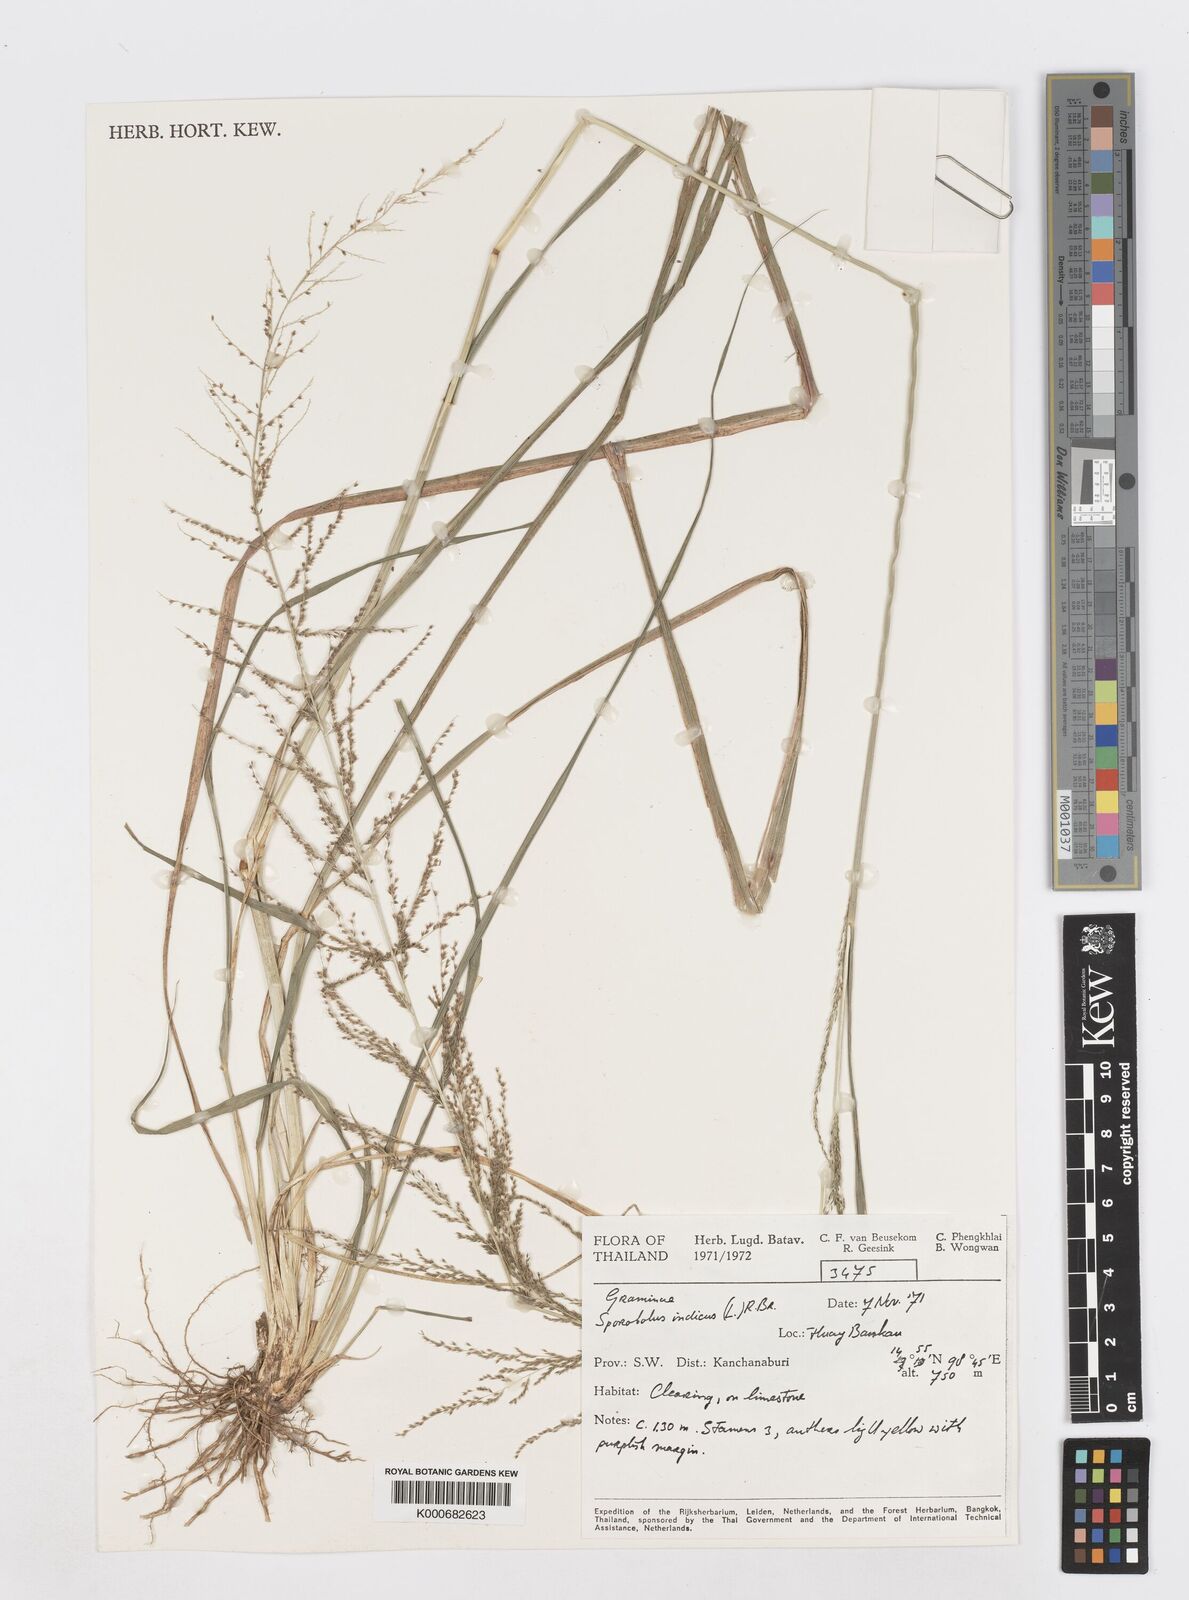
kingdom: Plantae
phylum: Tracheophyta
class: Liliopsida
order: Poales
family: Poaceae
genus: Sporobolus
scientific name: Sporobolus fertilis
